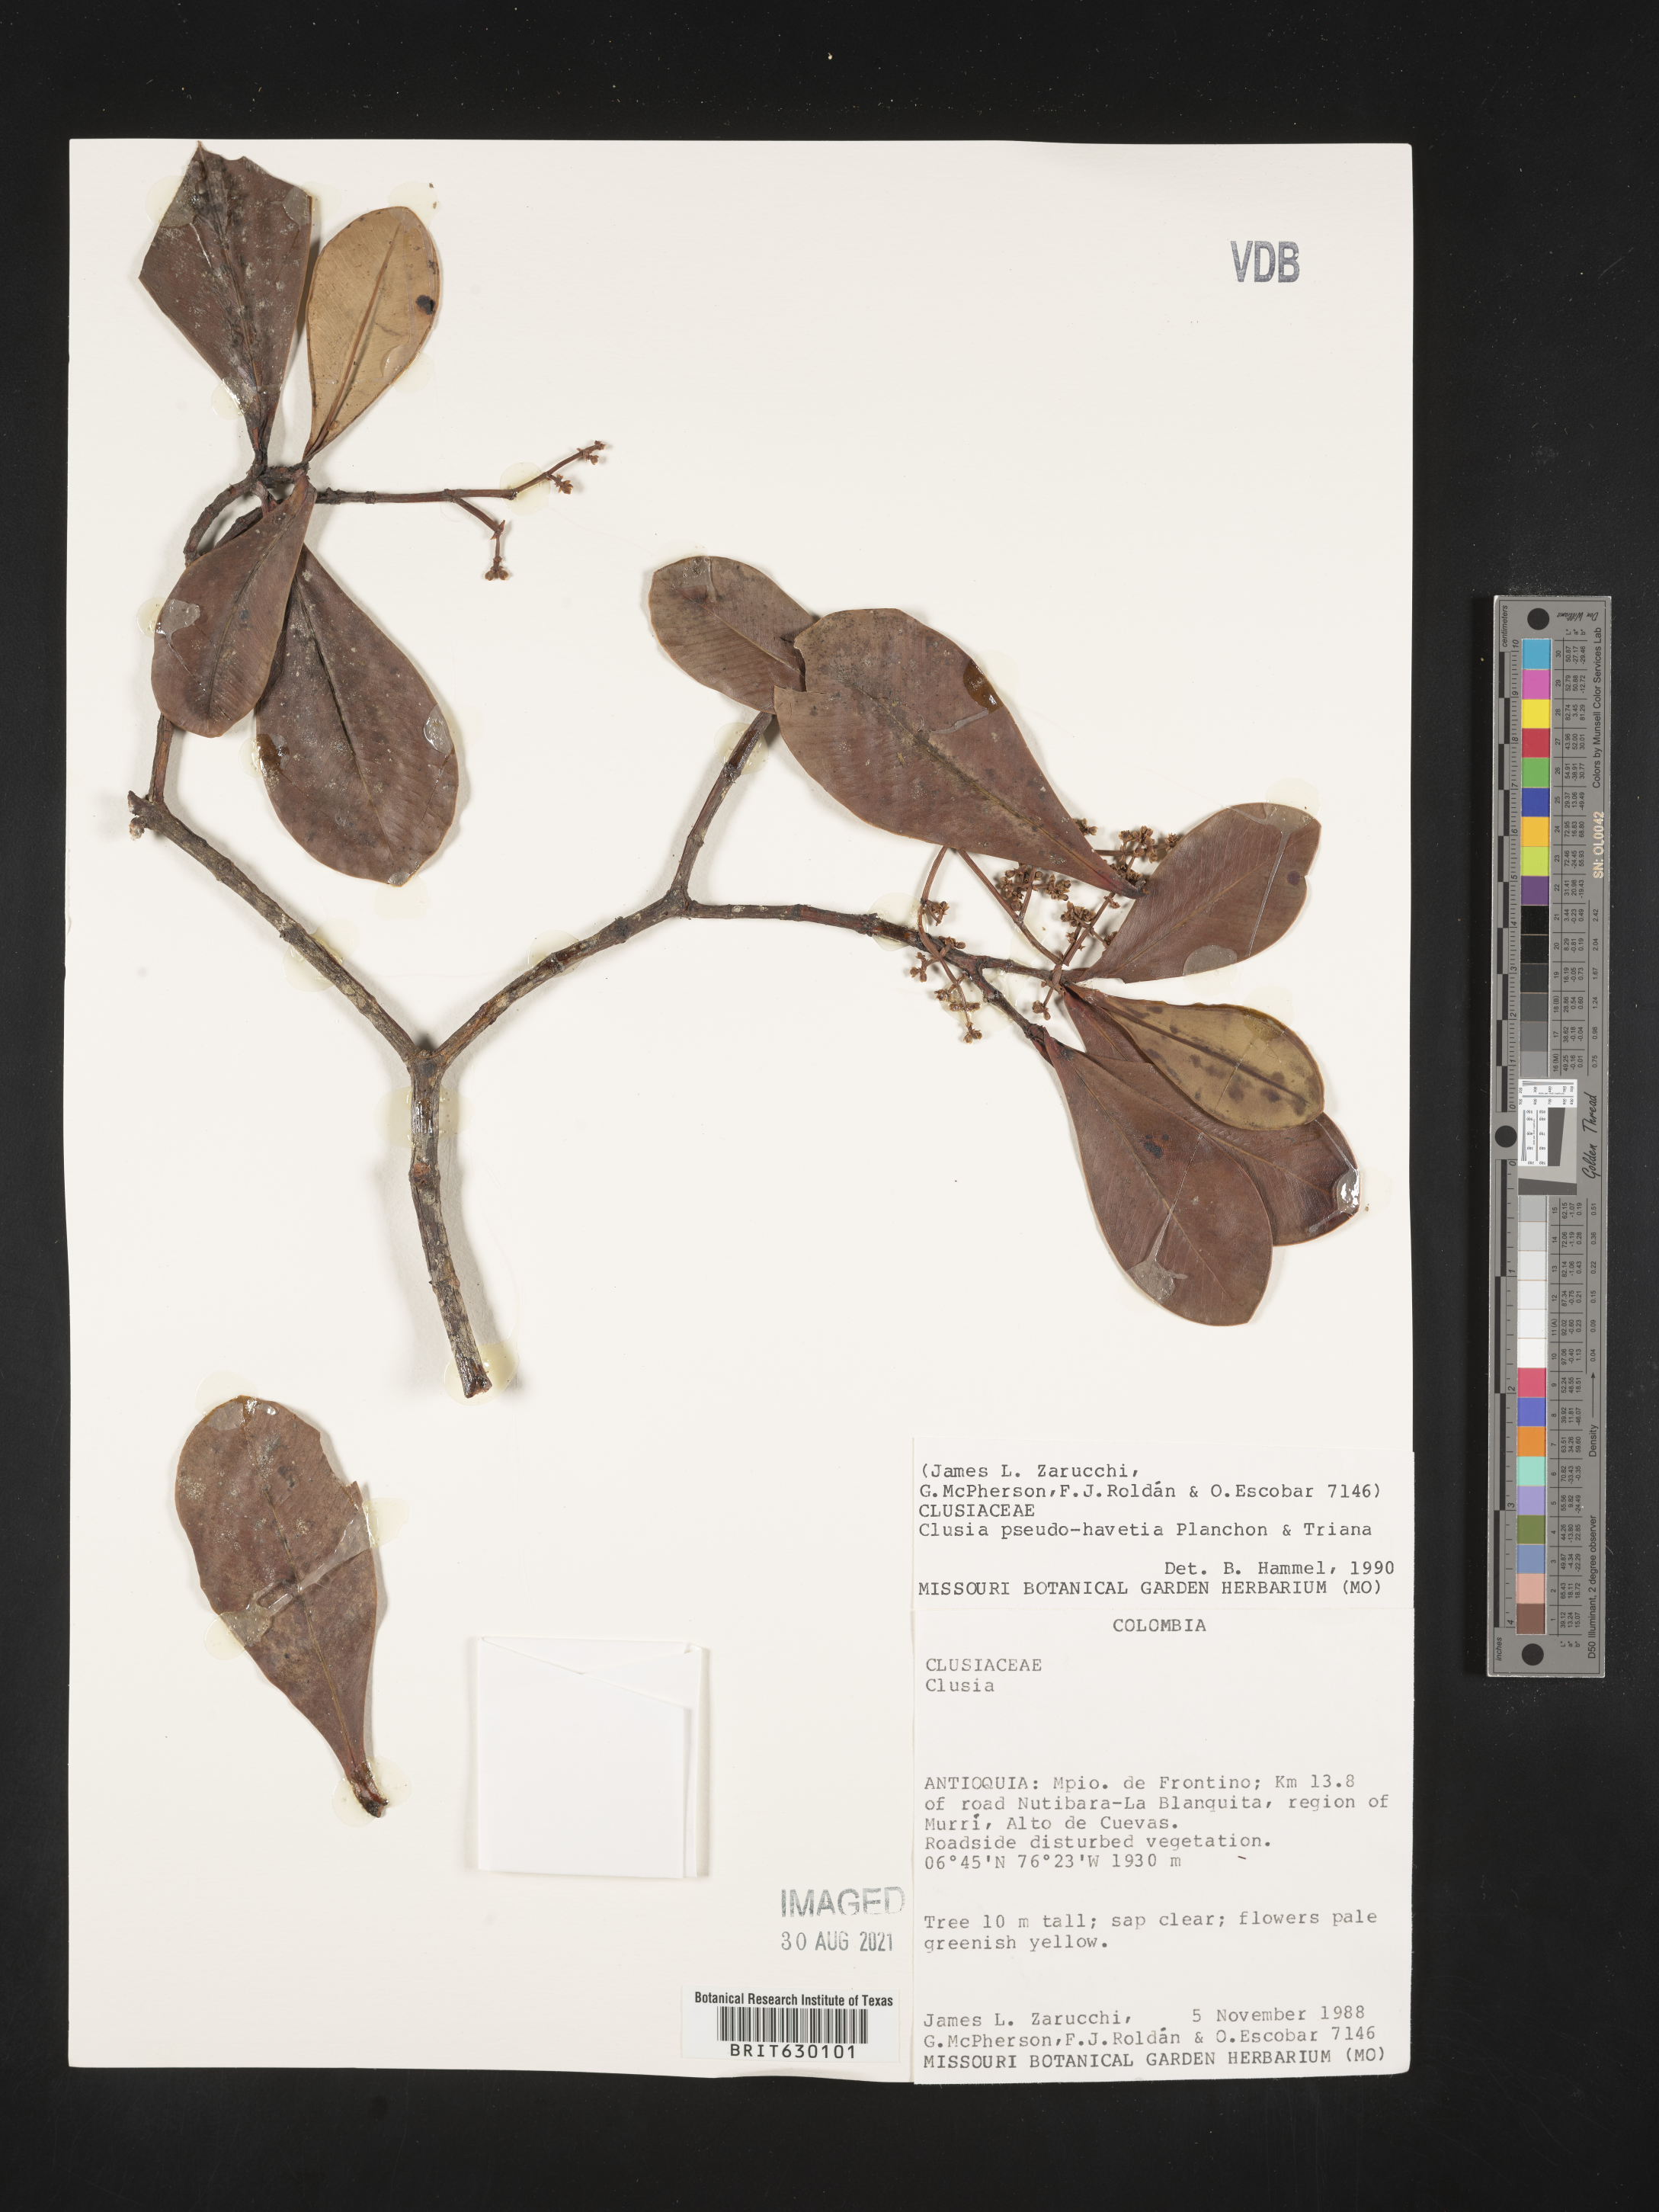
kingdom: Plantae
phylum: Tracheophyta
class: Magnoliopsida
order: Malpighiales
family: Clusiaceae
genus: Clusia
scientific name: Clusia pseudohavetia
